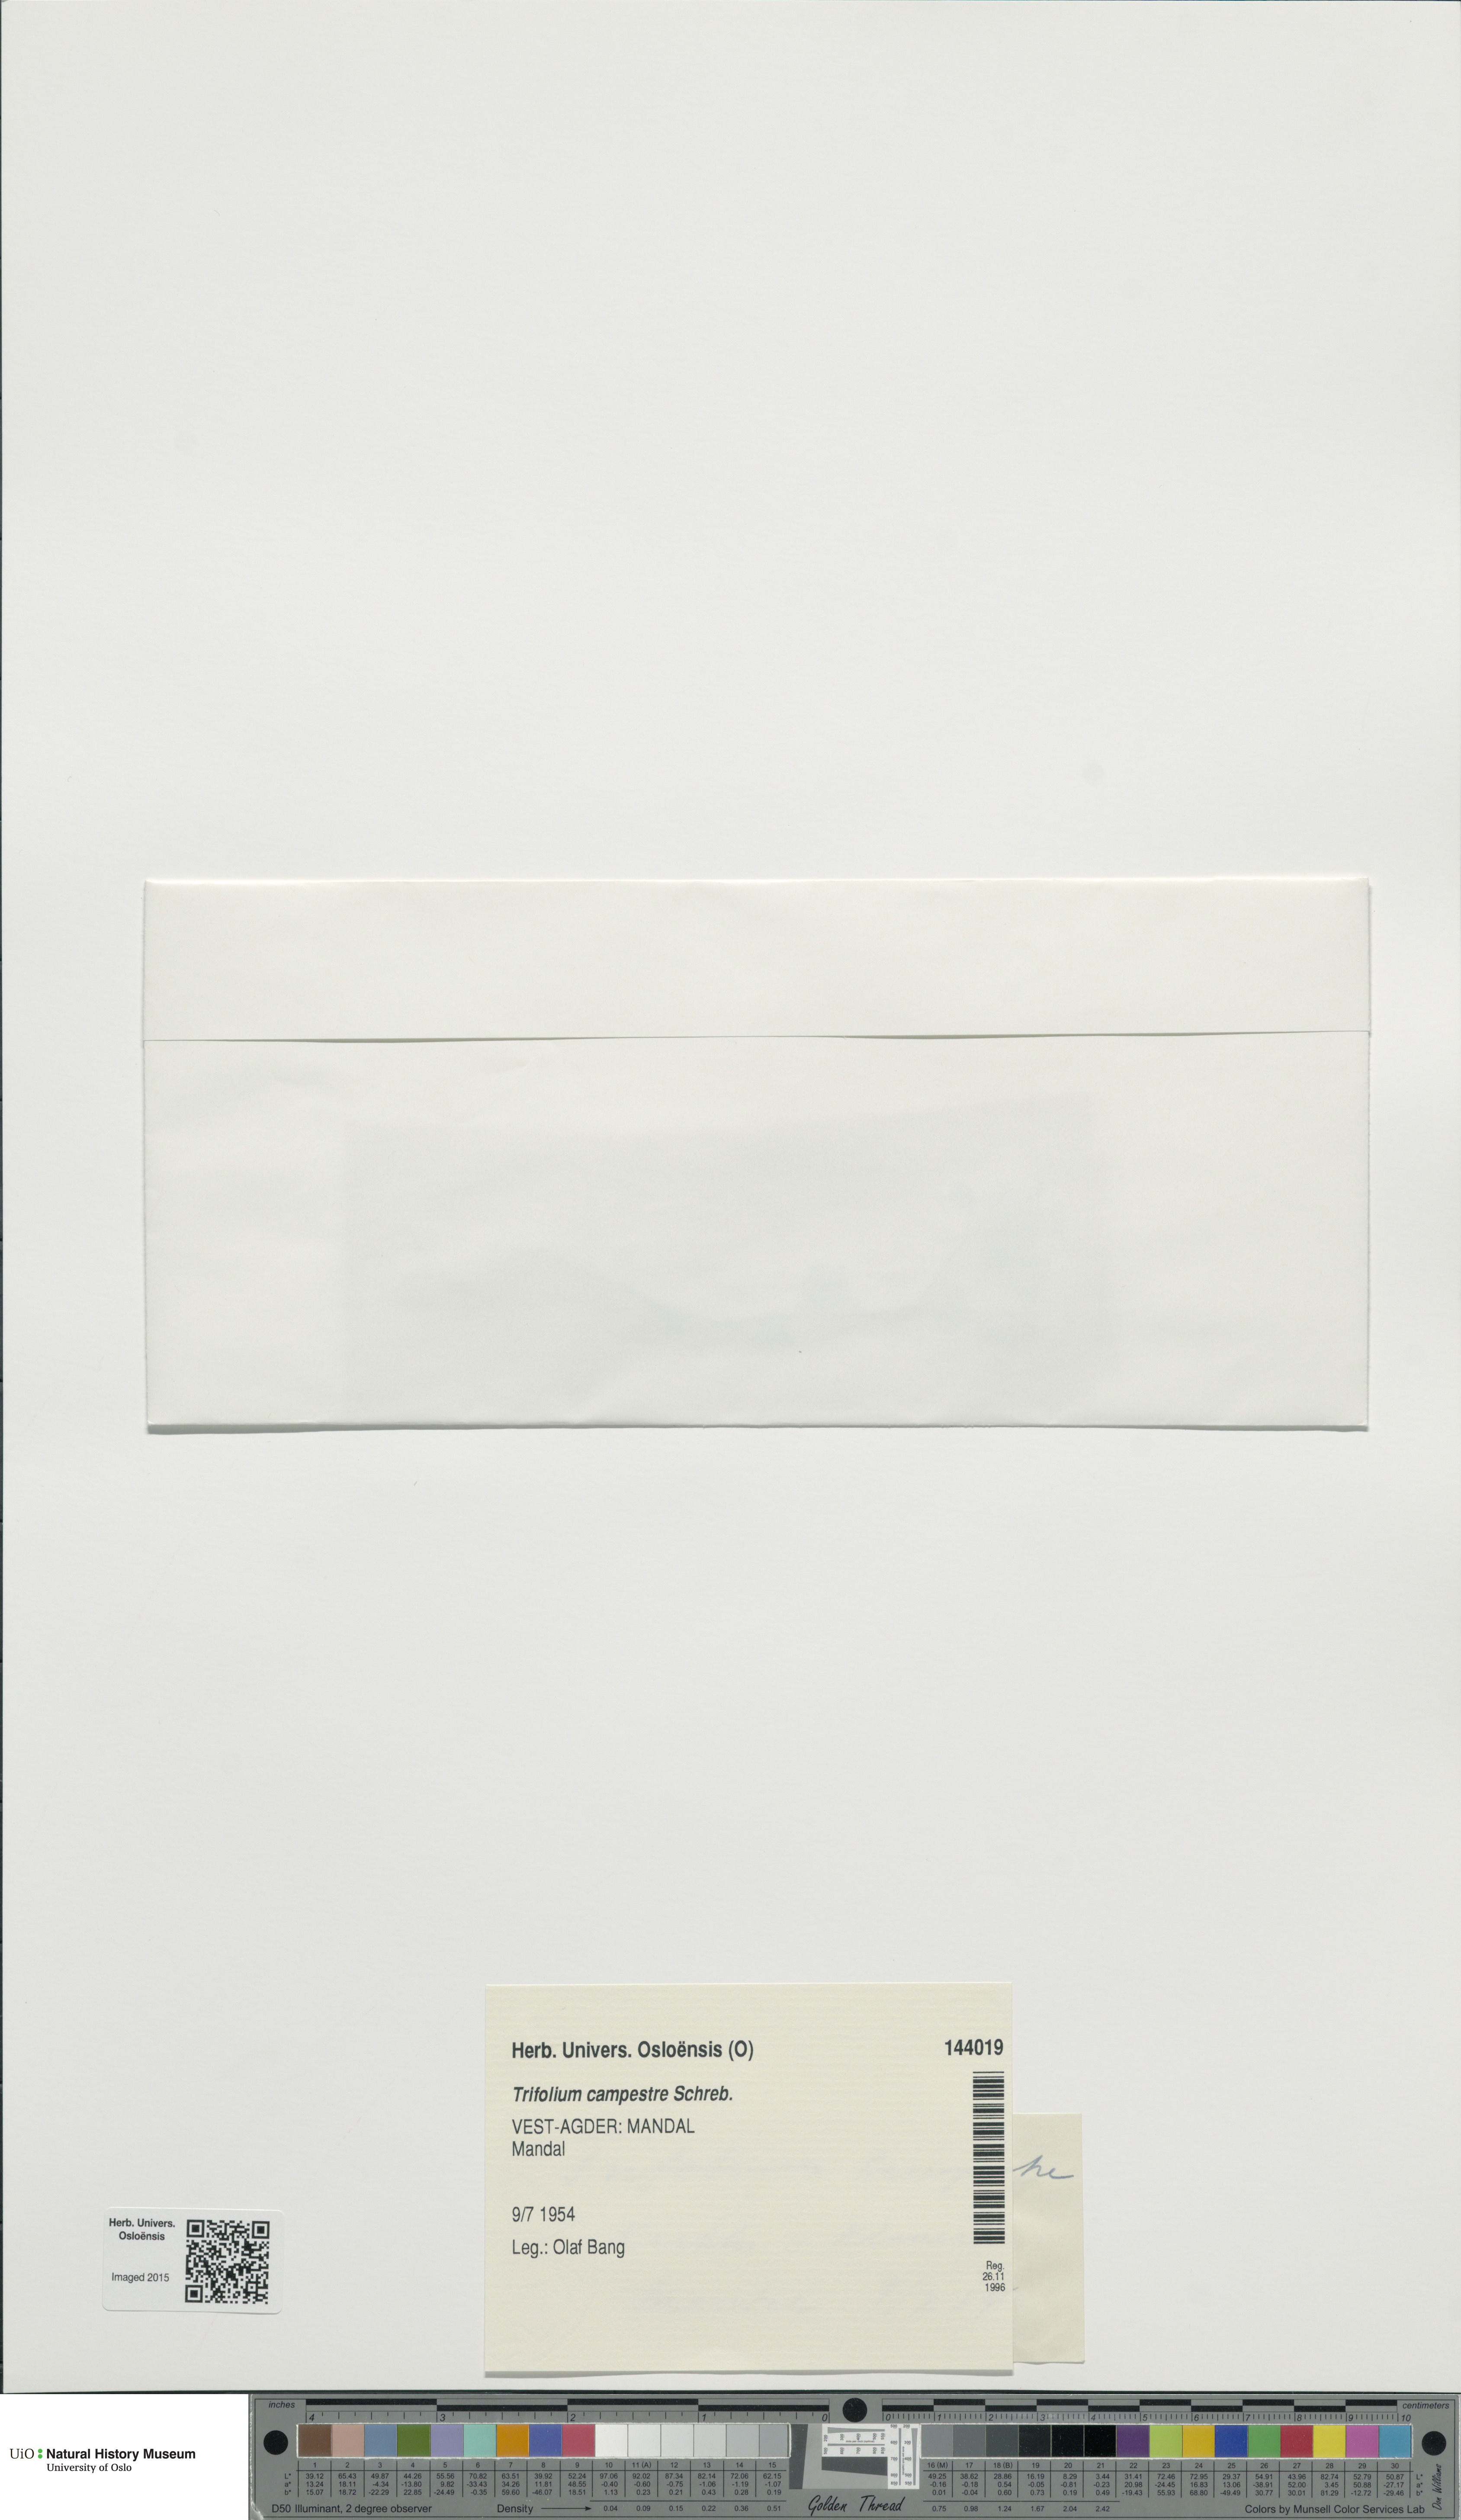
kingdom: Plantae
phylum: Tracheophyta
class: Magnoliopsida
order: Fabales
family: Fabaceae
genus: Trifolium
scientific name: Trifolium campestre
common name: Field clover
